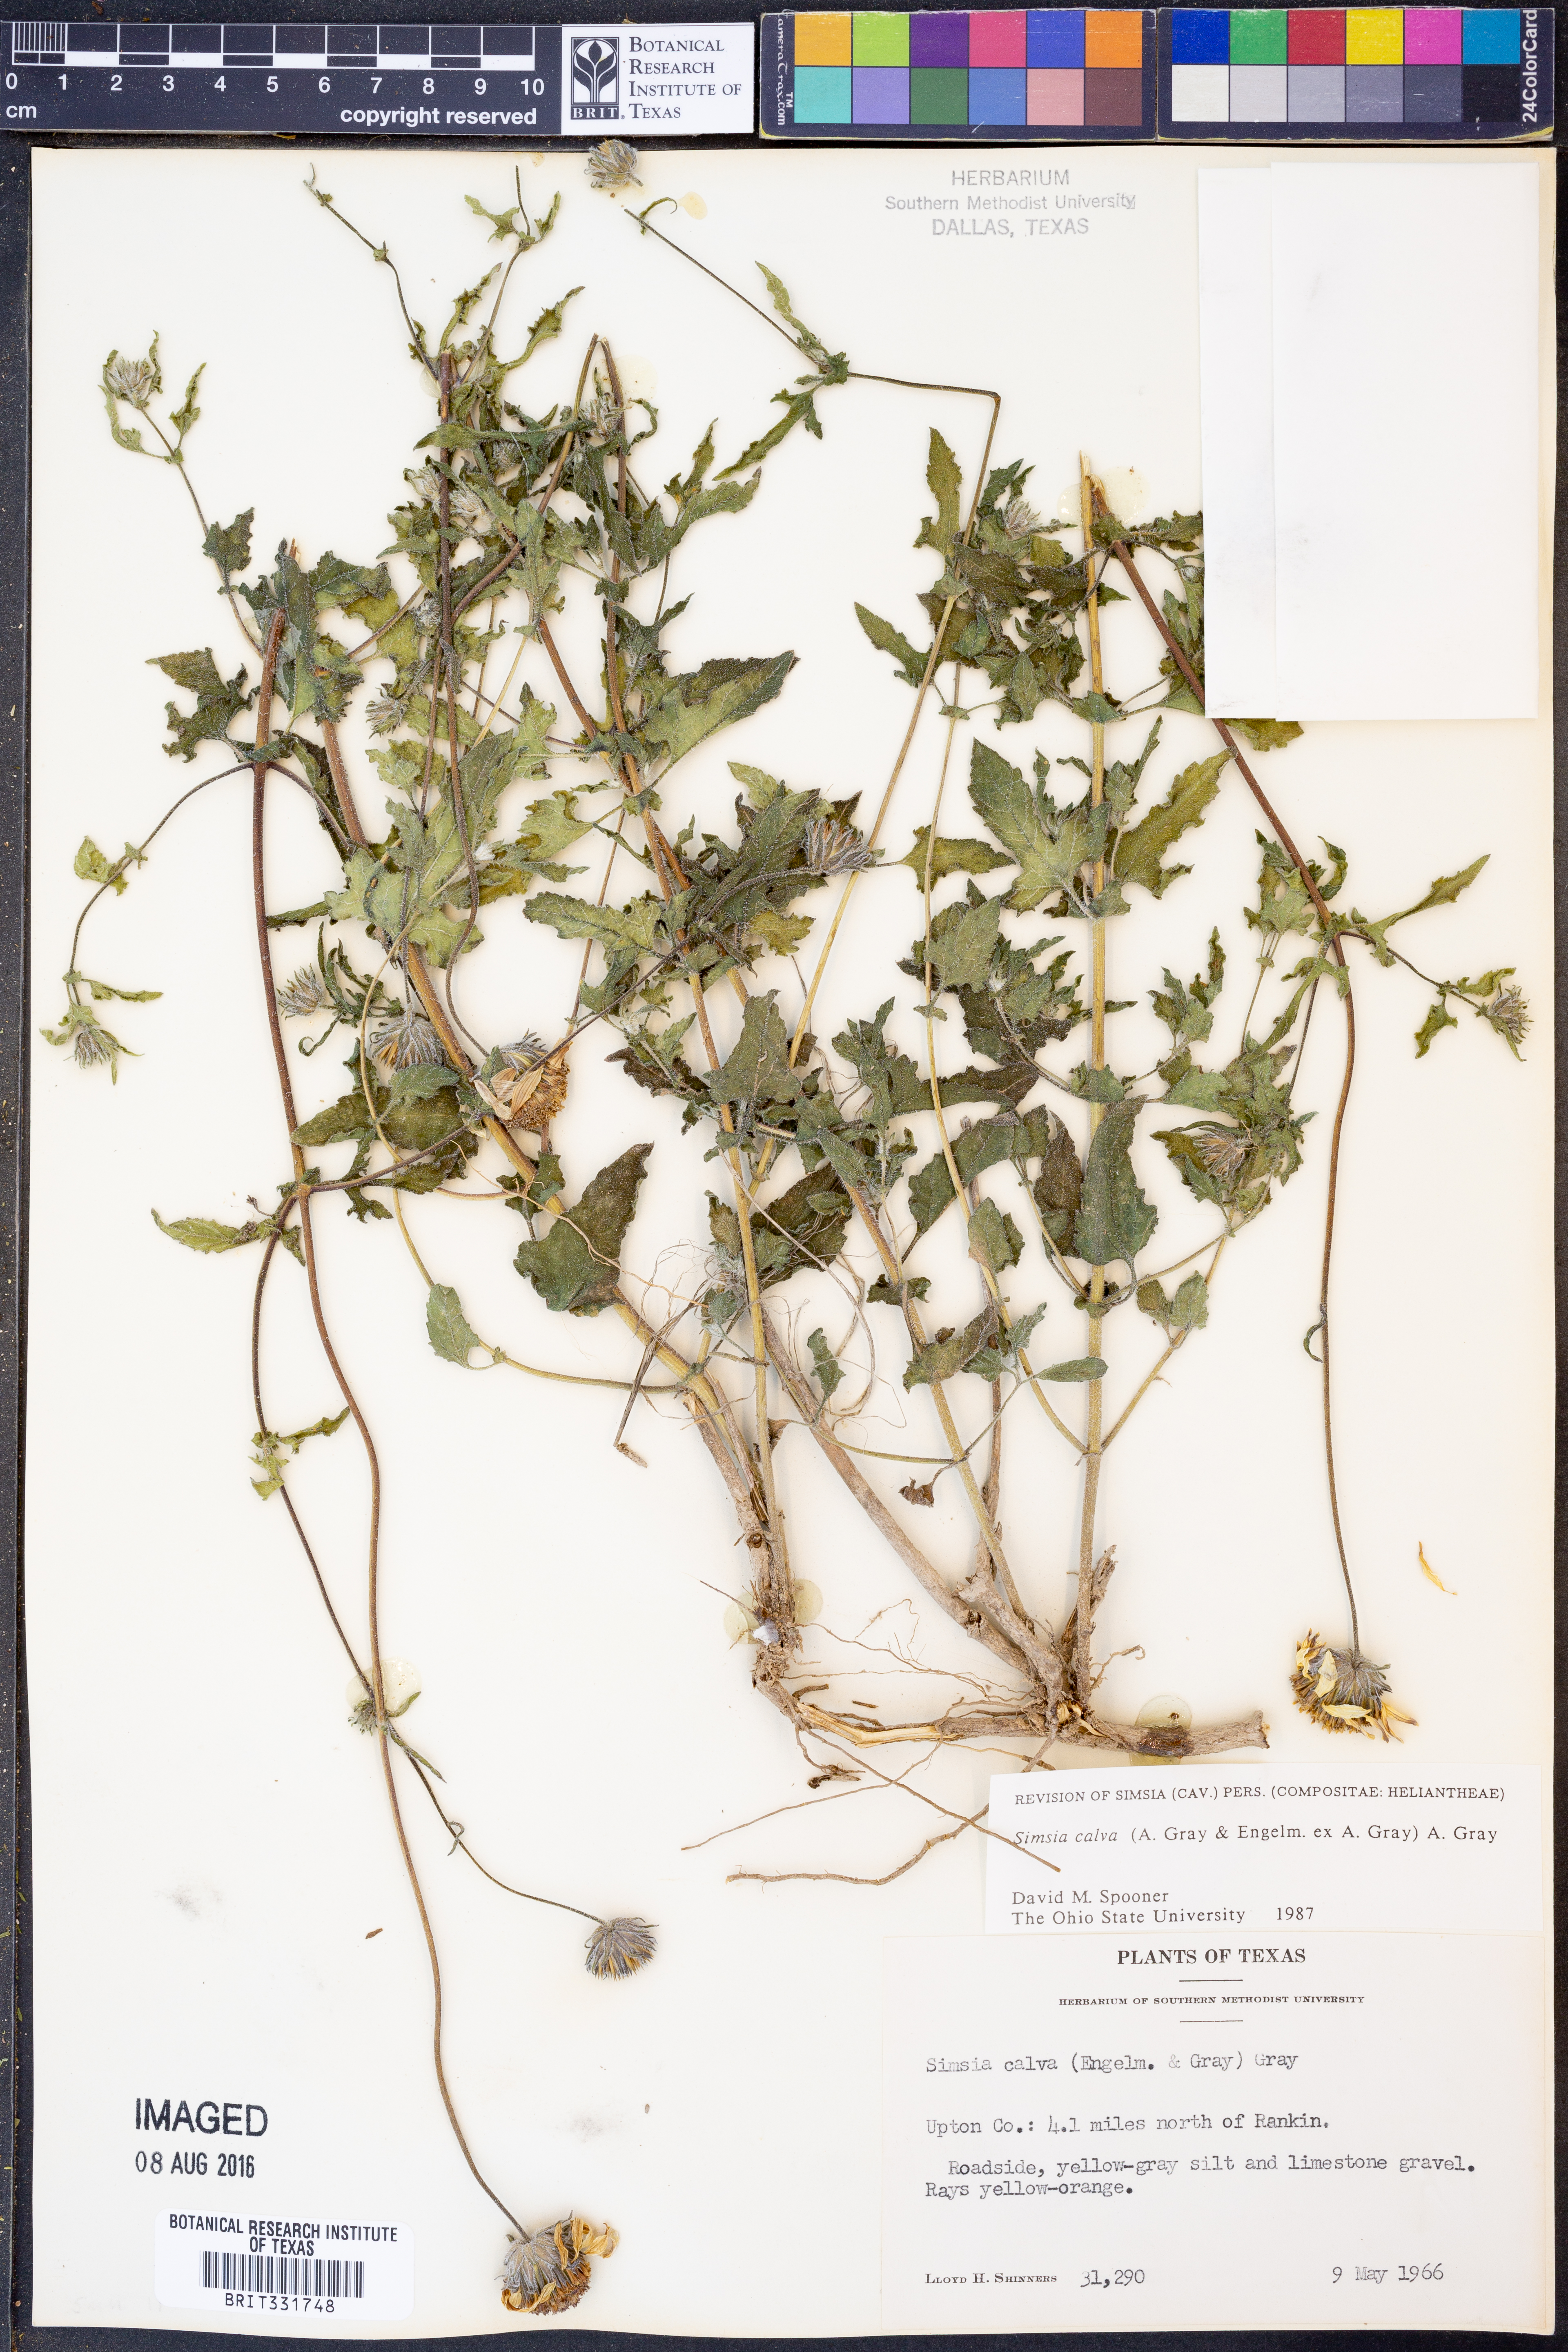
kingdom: Plantae
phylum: Tracheophyta
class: Magnoliopsida
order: Asterales
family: Asteraceae
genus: Simsia
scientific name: Simsia calva
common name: Awnless bush-sunflower
